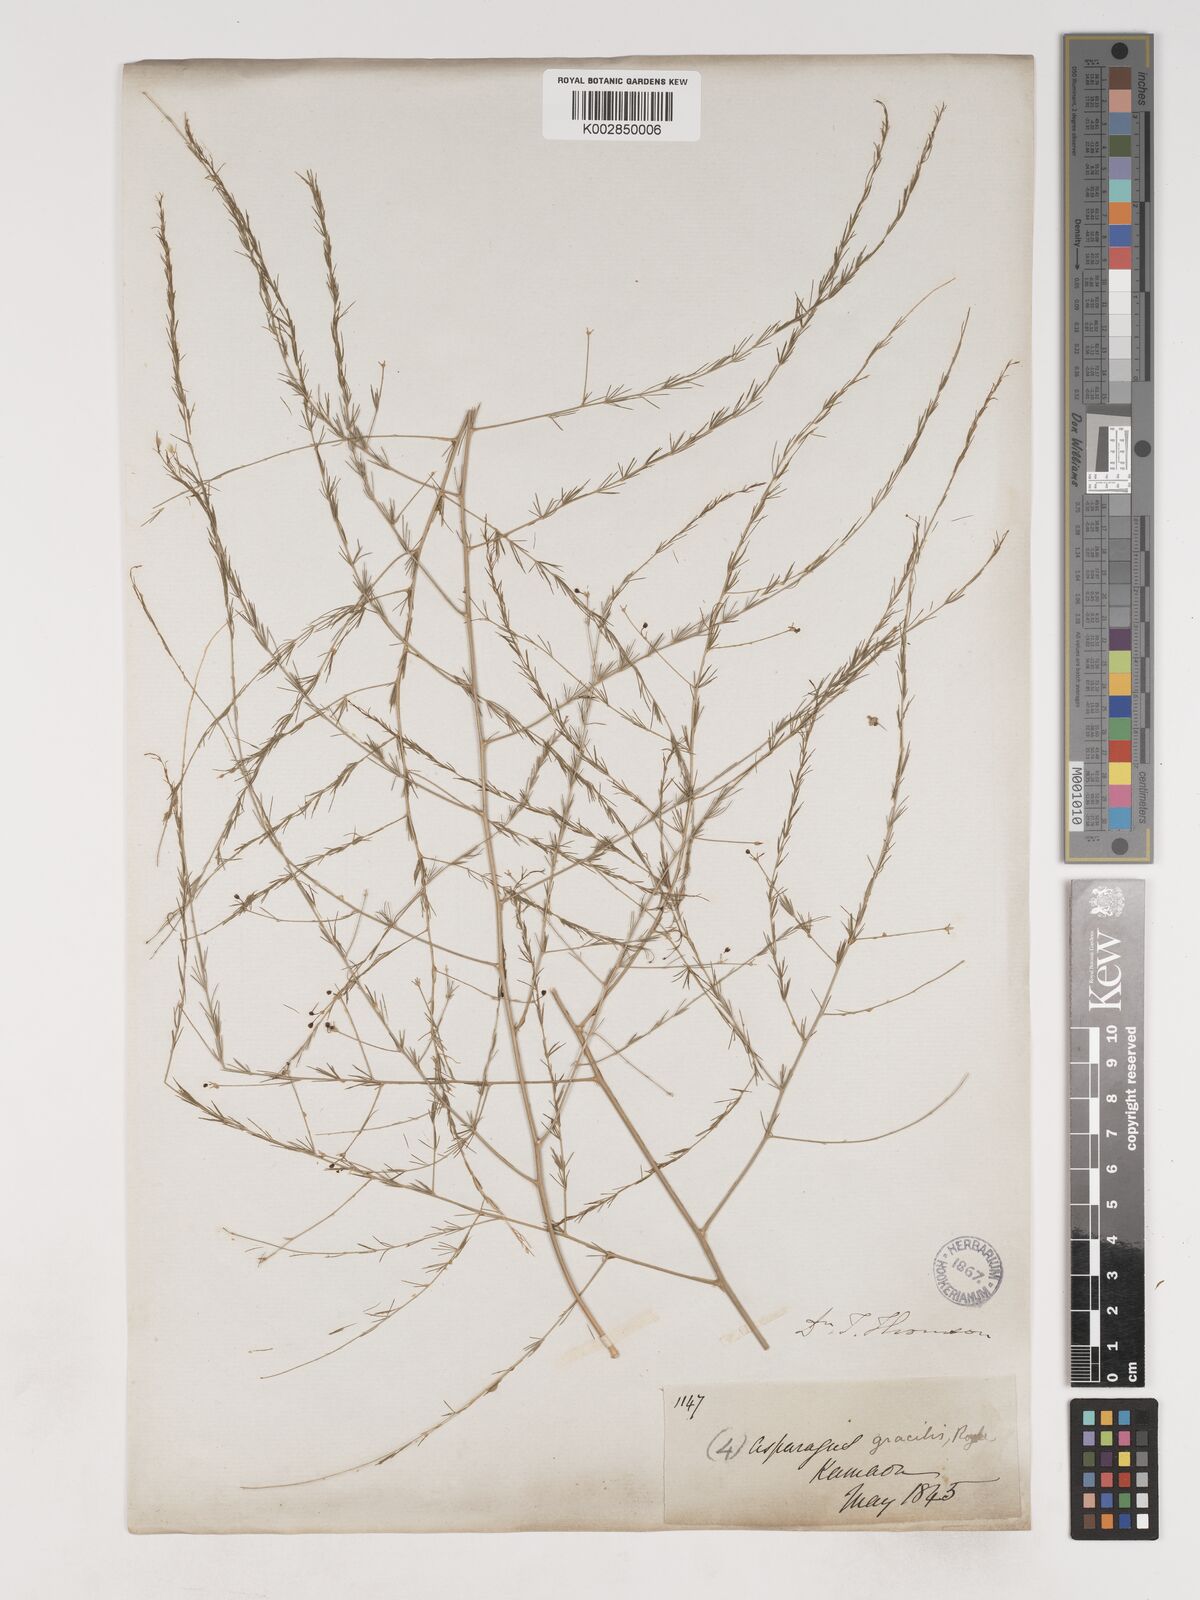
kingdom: Plantae
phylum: Tracheophyta
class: Liliopsida
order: Asparagales
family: Asparagaceae
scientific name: Asparagaceae
